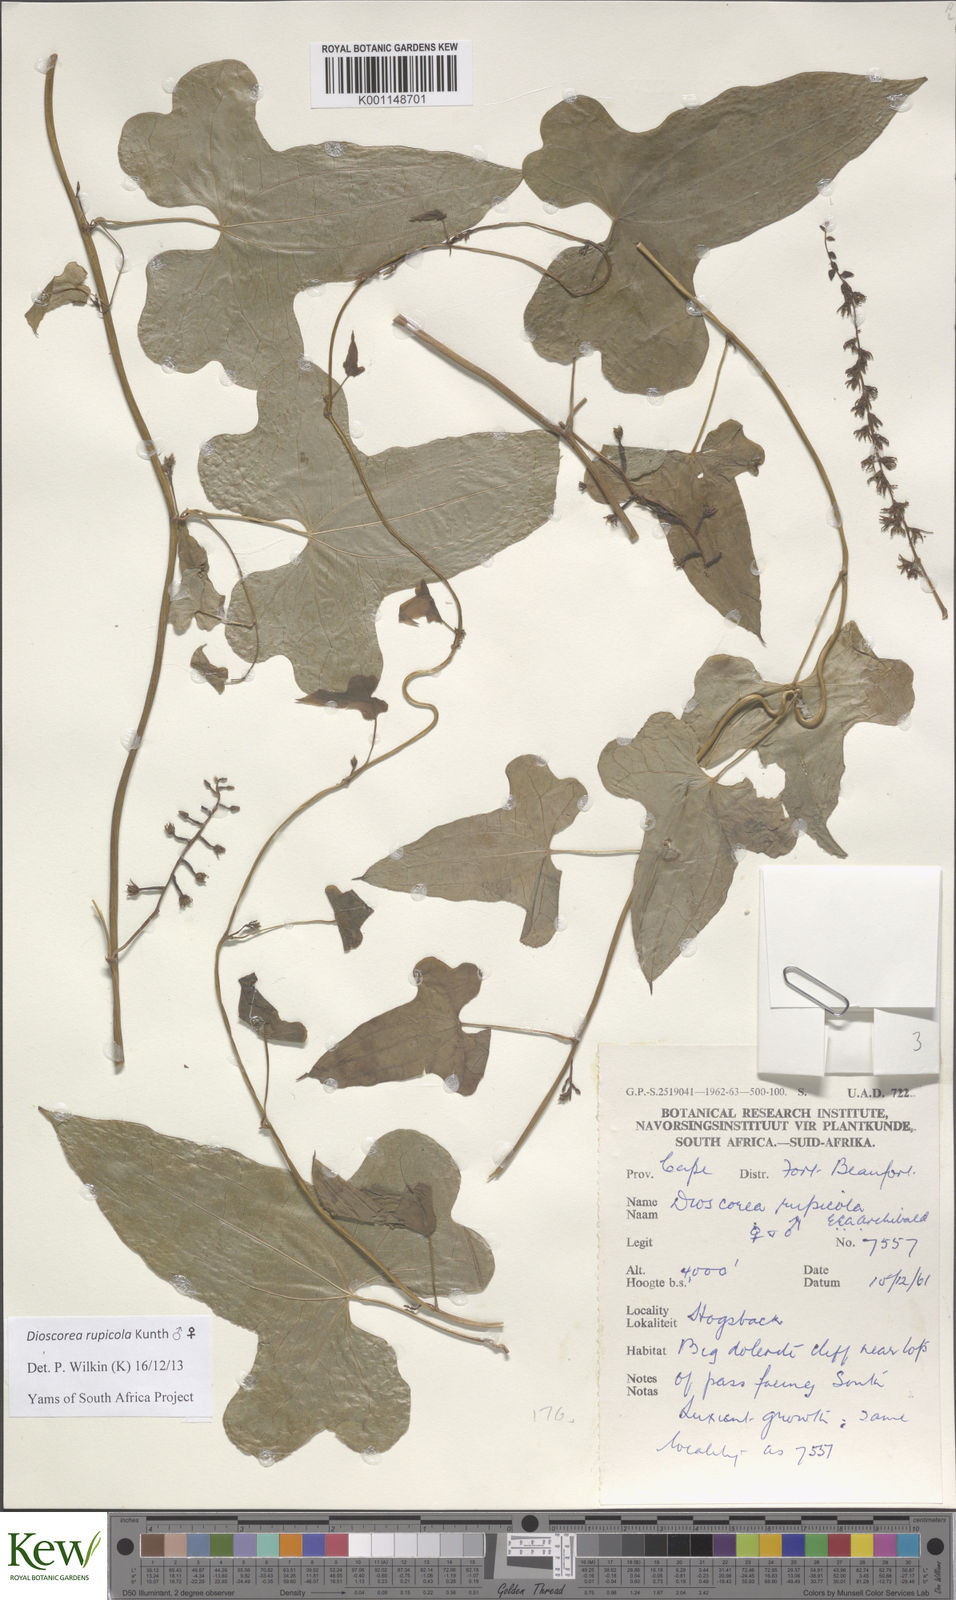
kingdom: Plantae
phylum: Tracheophyta
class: Liliopsida
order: Dioscoreales
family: Dioscoreaceae
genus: Dioscorea
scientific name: Dioscorea rupicola
